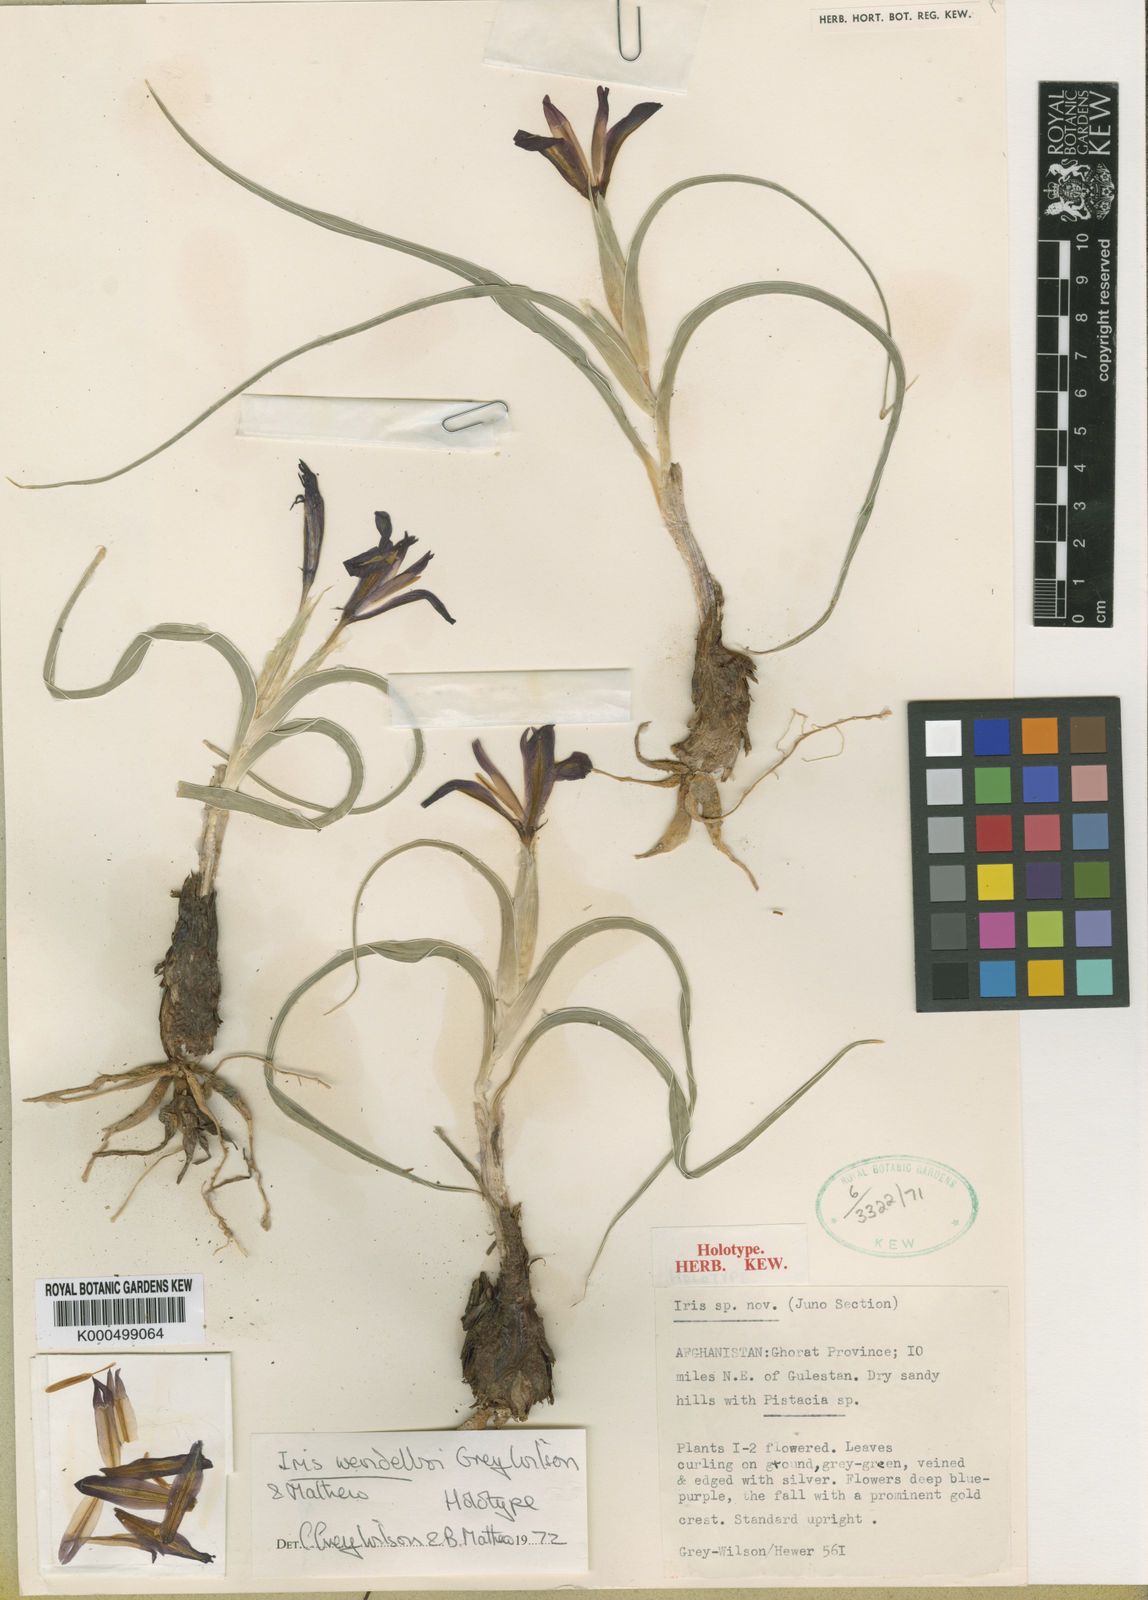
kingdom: Plantae
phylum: Tracheophyta
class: Liliopsida
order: Asparagales
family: Iridaceae
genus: Iris
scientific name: Iris wendelboi
